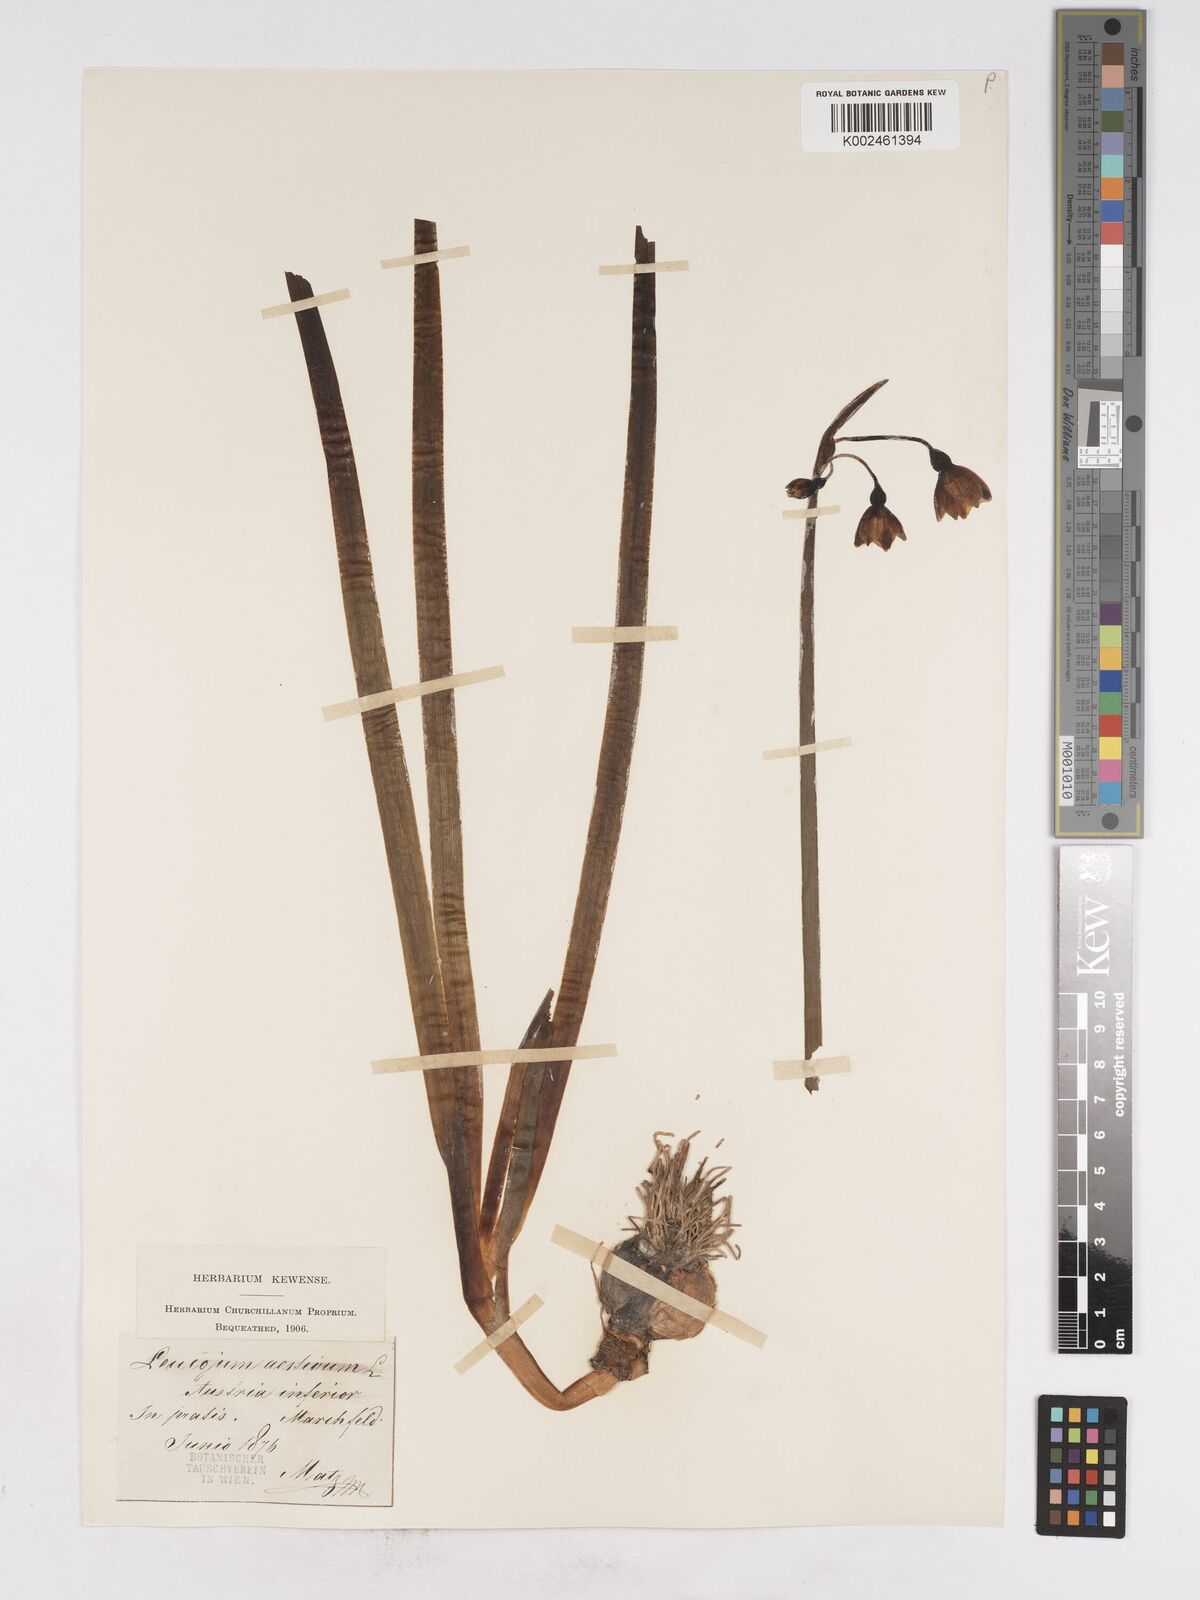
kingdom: Plantae
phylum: Tracheophyta
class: Liliopsida
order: Asparagales
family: Amaryllidaceae
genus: Leucojum
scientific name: Leucojum aestivum
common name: Summer snowflake
